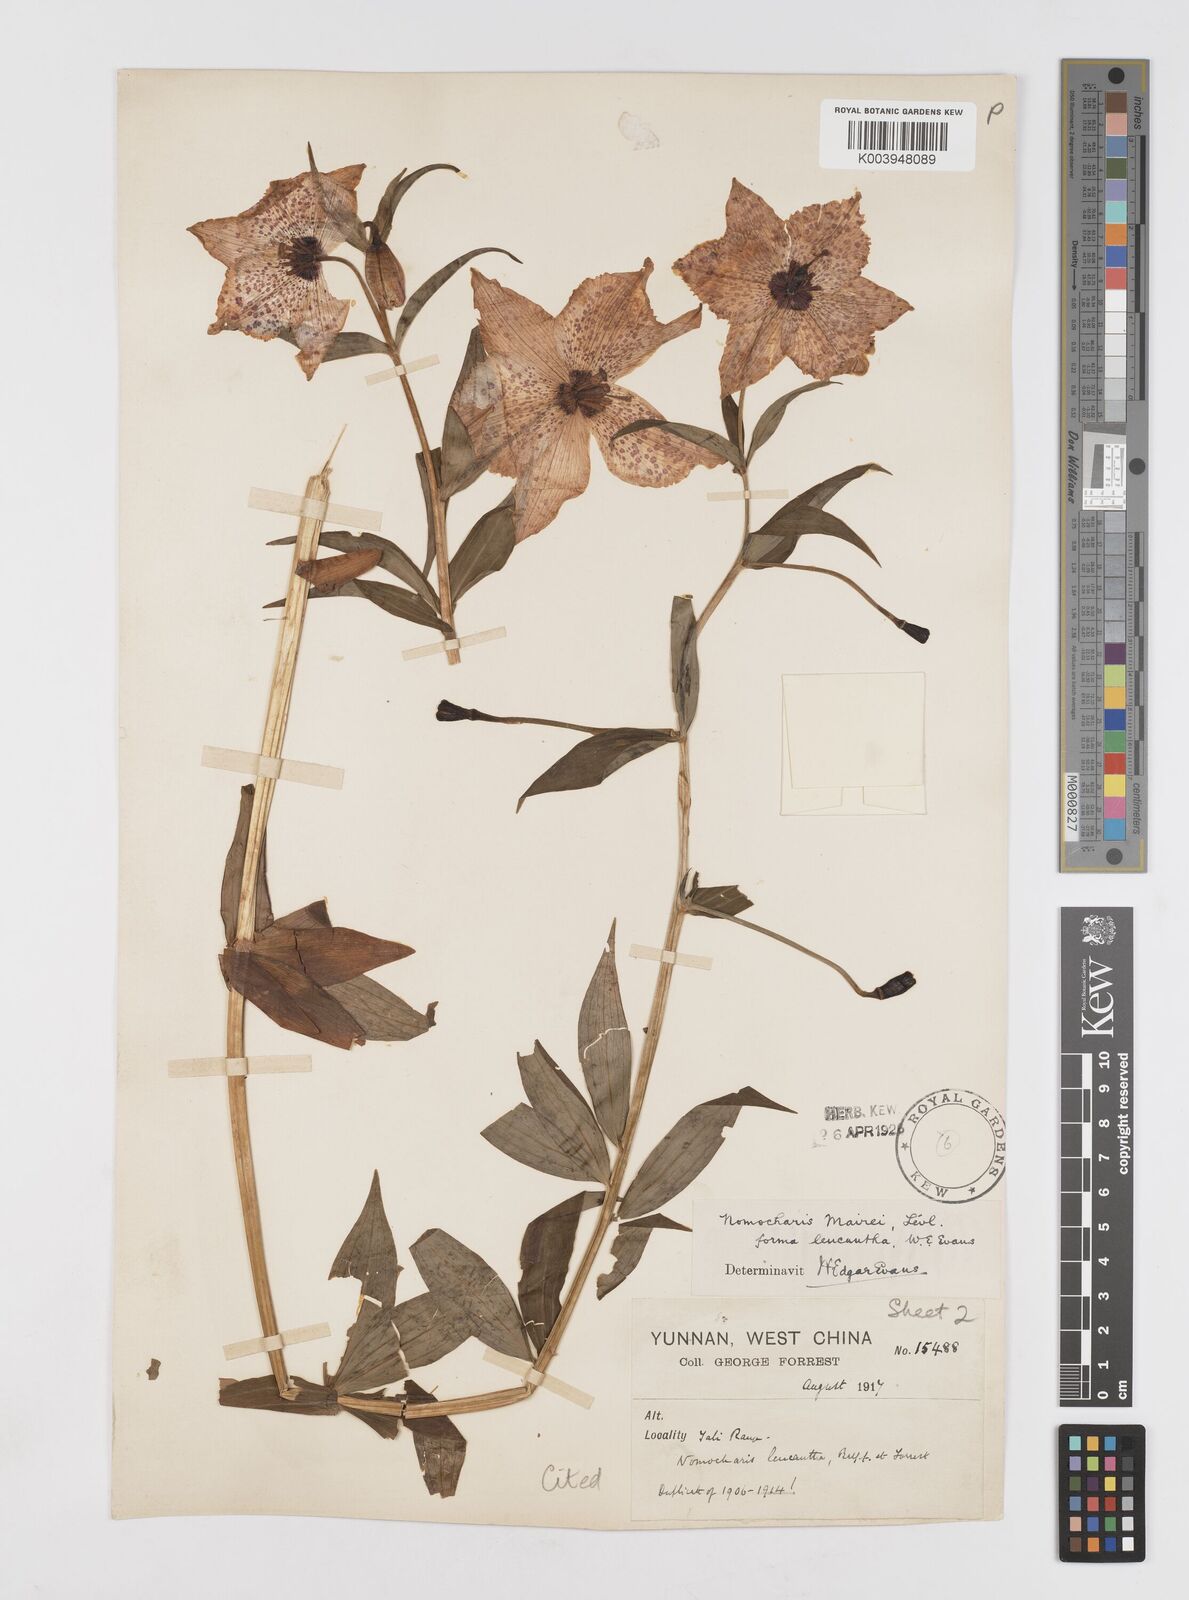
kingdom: Plantae
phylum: Tracheophyta
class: Liliopsida
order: Liliales
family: Liliaceae
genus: Lilium
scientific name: Lilium pardanthinum
